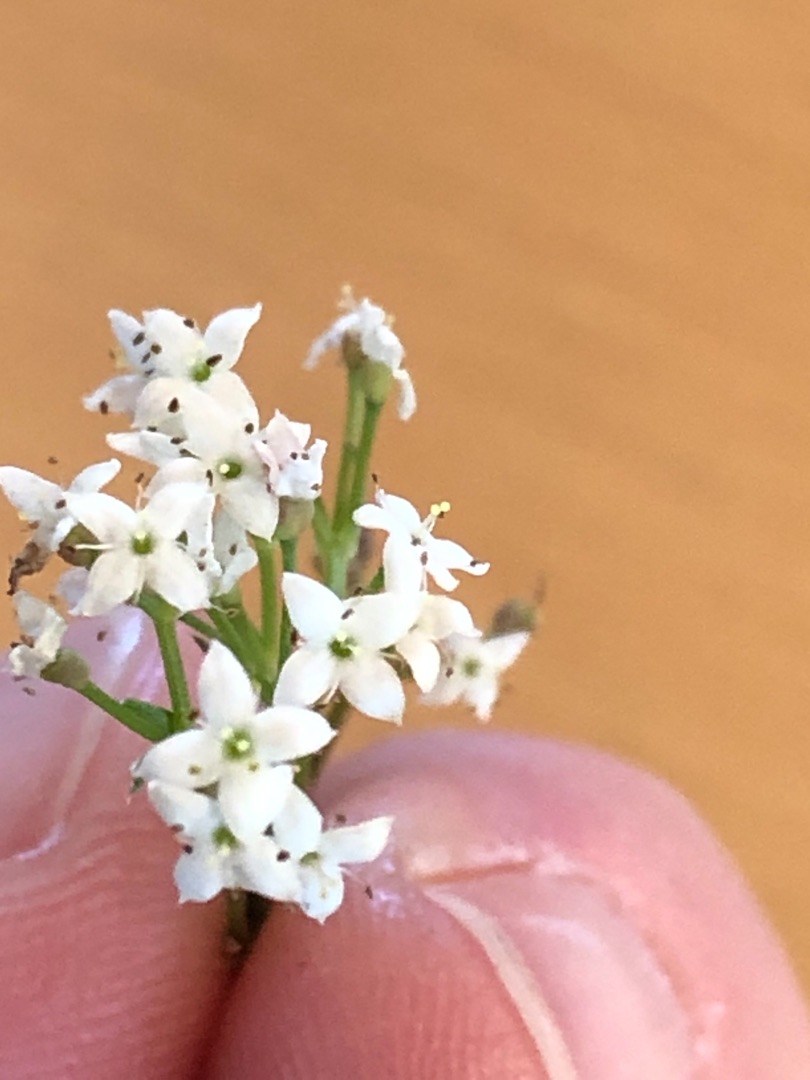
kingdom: Plantae
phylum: Tracheophyta
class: Magnoliopsida
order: Gentianales
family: Rubiaceae
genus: Galium
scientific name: Galium mollugo
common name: Hvid snerre
